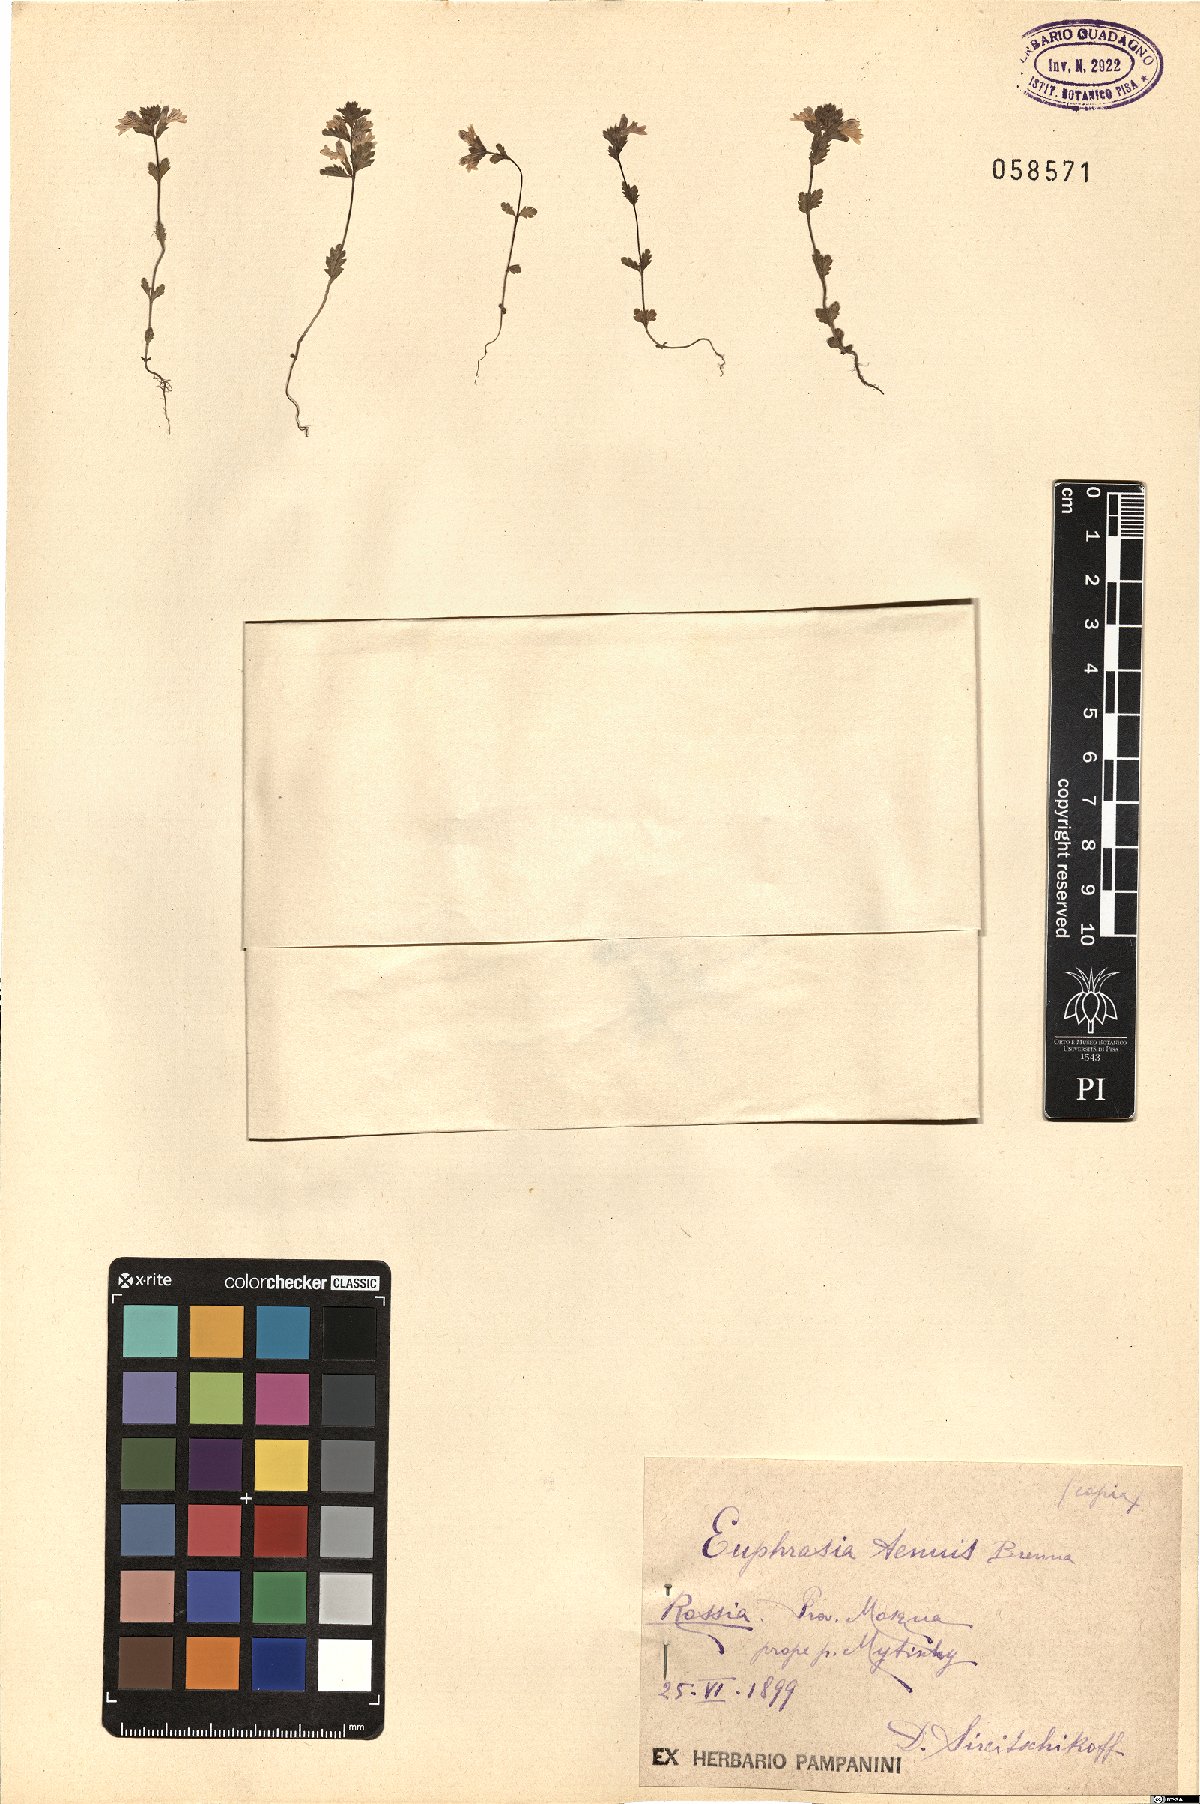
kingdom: Plantae
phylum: Tracheophyta
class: Magnoliopsida
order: Lamiales
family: Scrophulariaceae
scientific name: Scrophulariaceae
